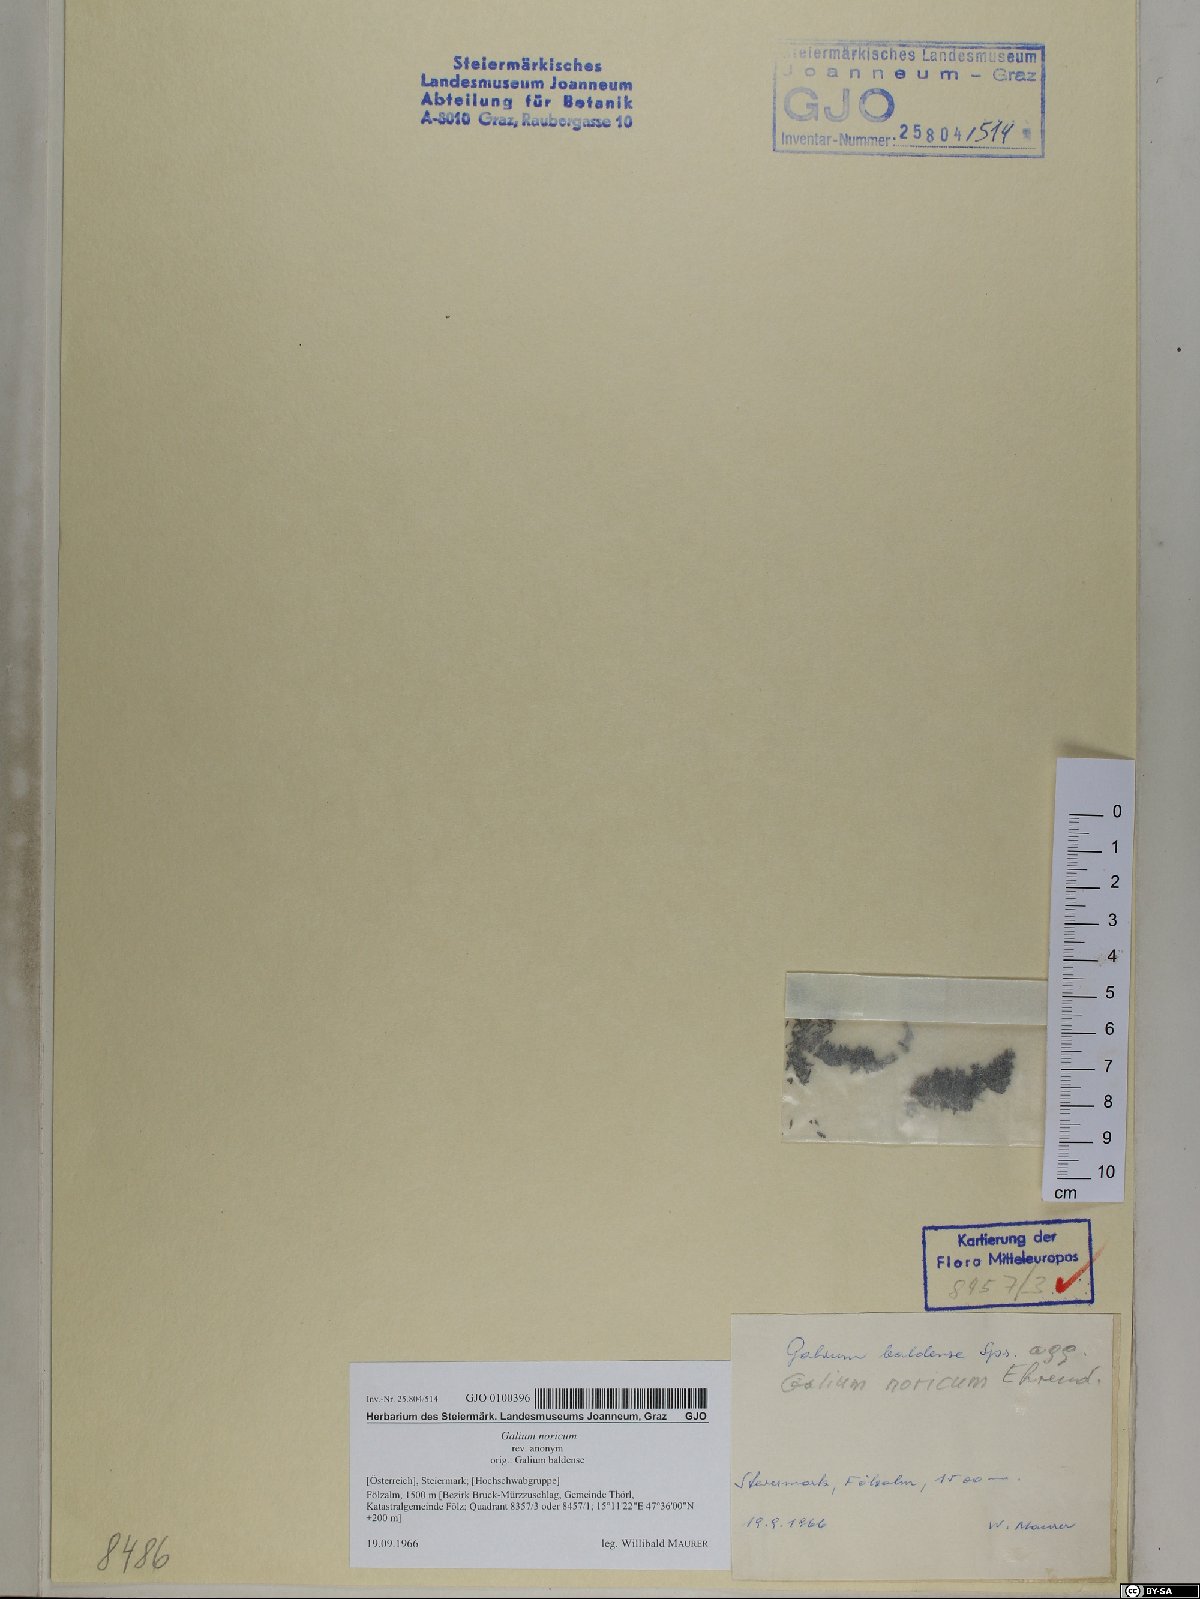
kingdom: Plantae
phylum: Tracheophyta
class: Magnoliopsida
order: Gentianales
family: Rubiaceae
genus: Galium
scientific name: Galium noricum
